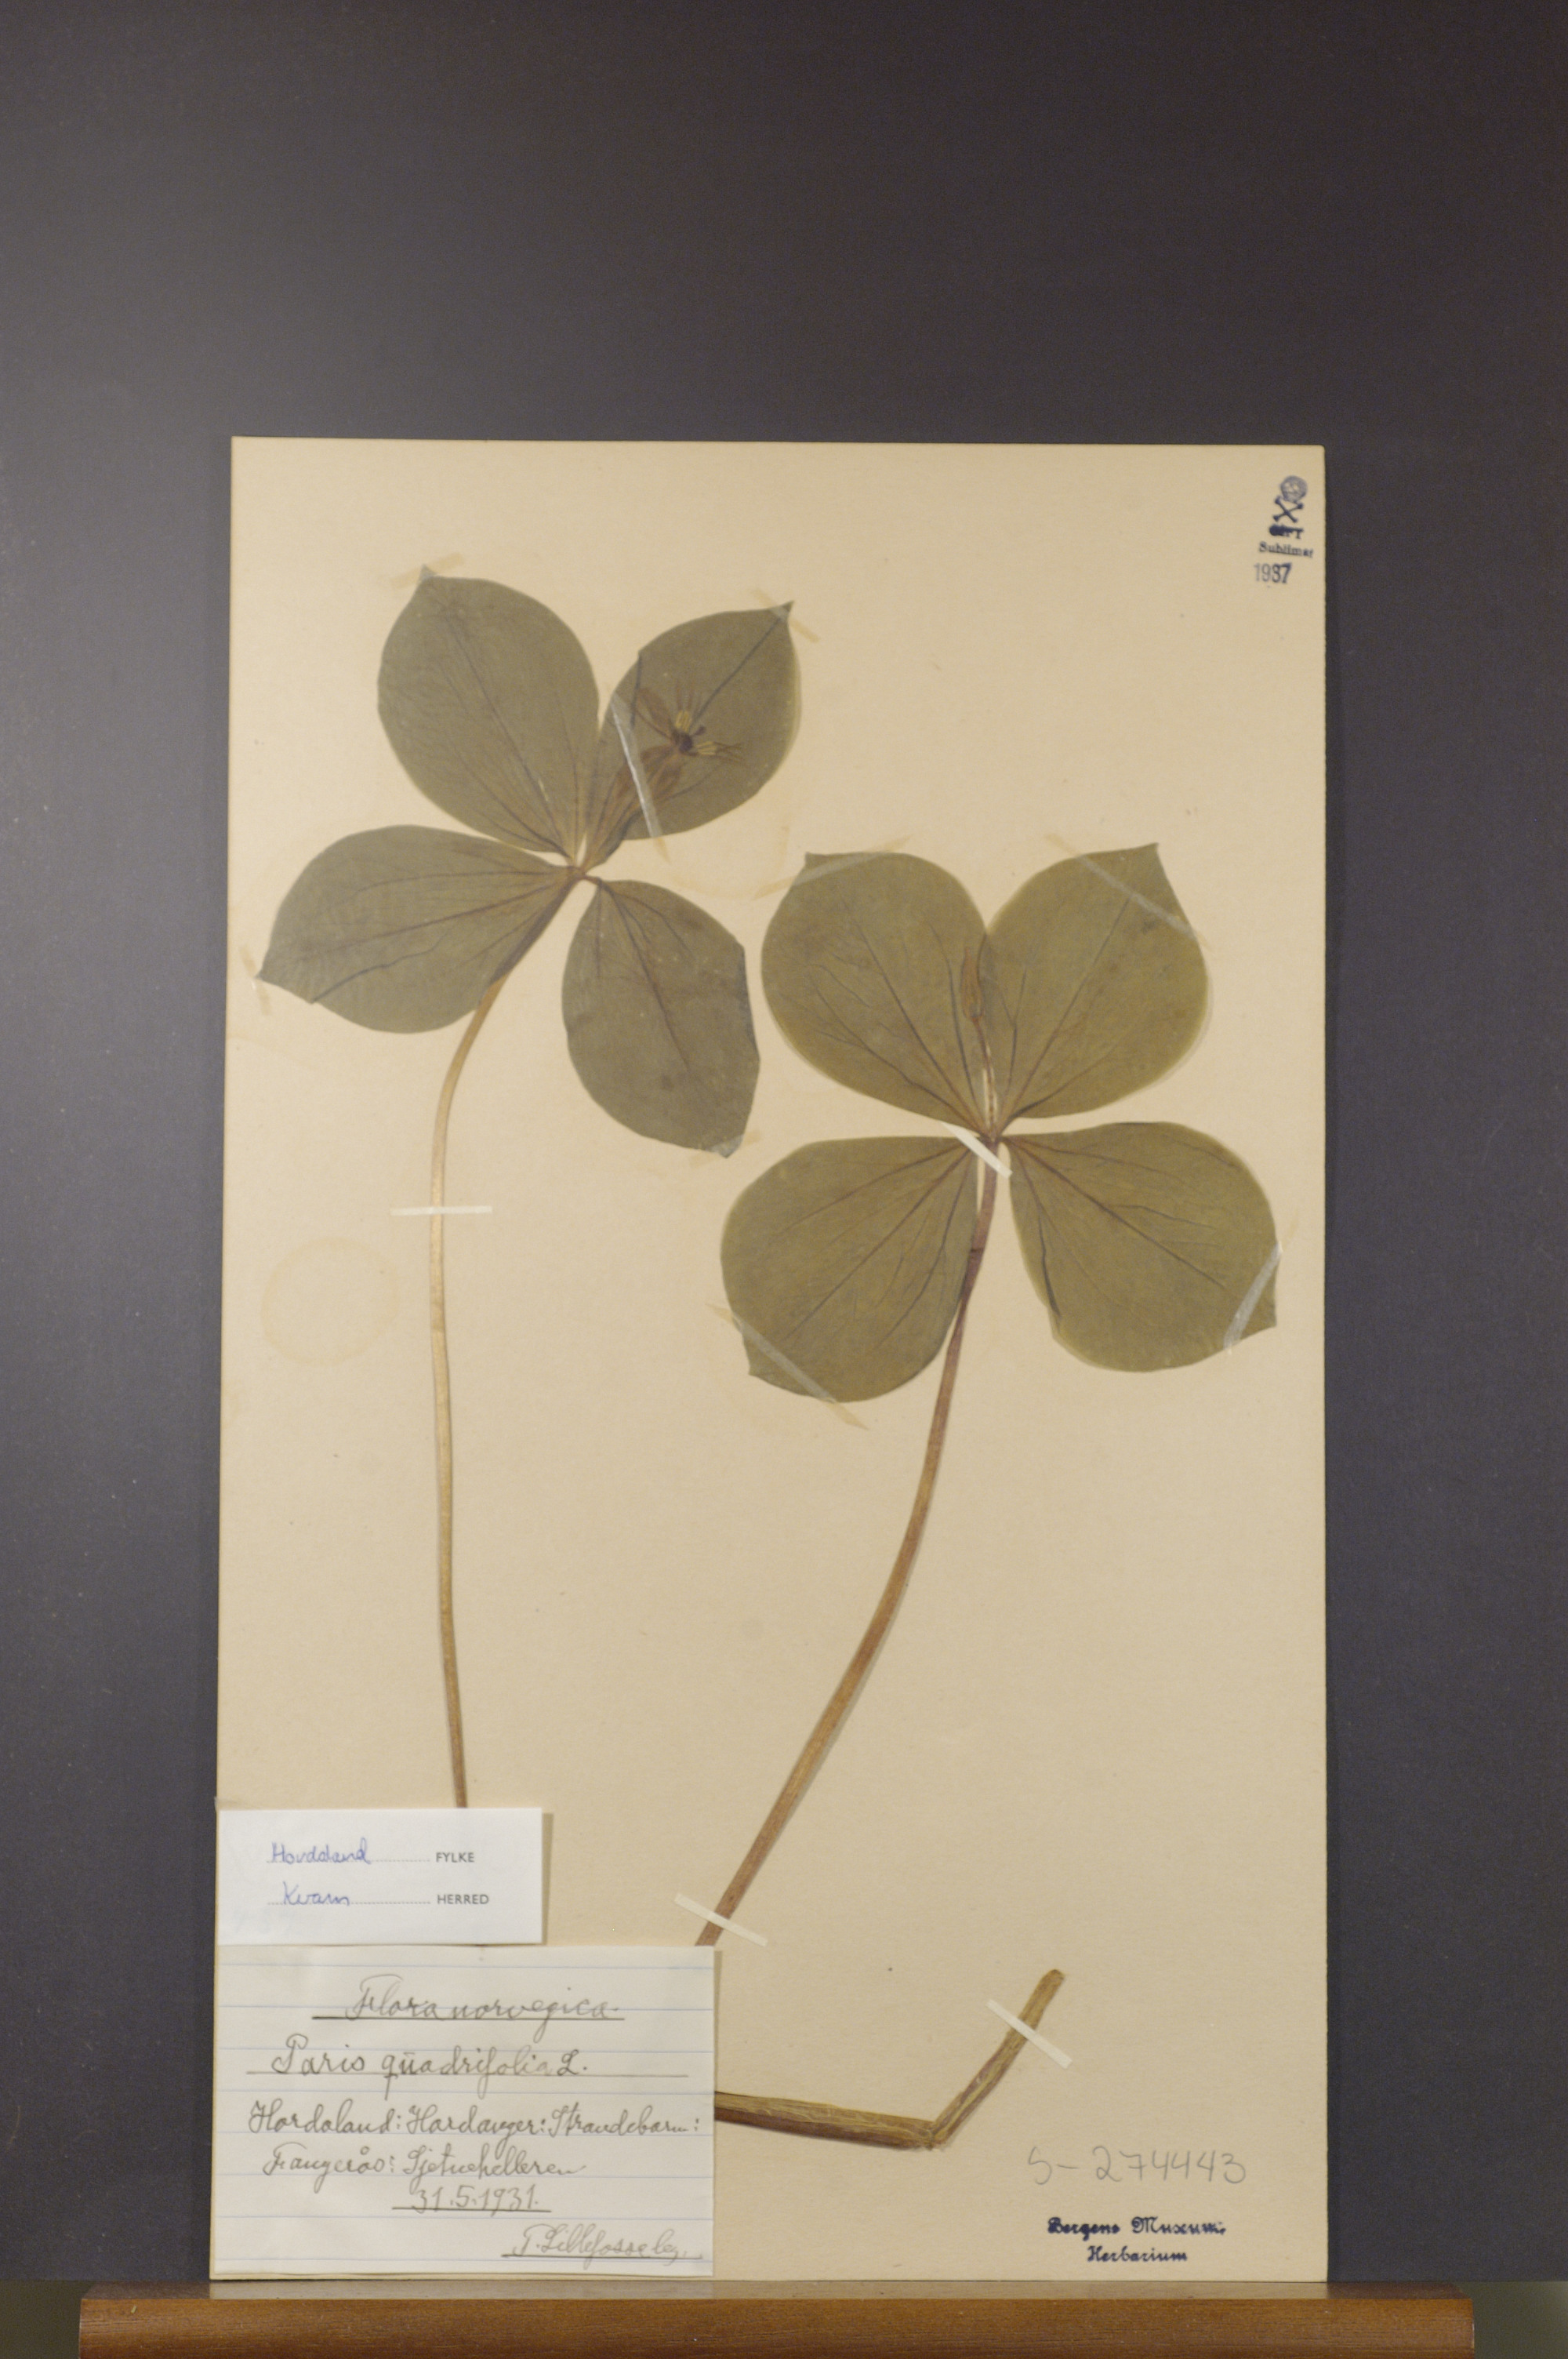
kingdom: Plantae
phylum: Tracheophyta
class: Liliopsida
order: Liliales
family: Melanthiaceae
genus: Paris
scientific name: Paris quadrifolia
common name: Herb-paris
